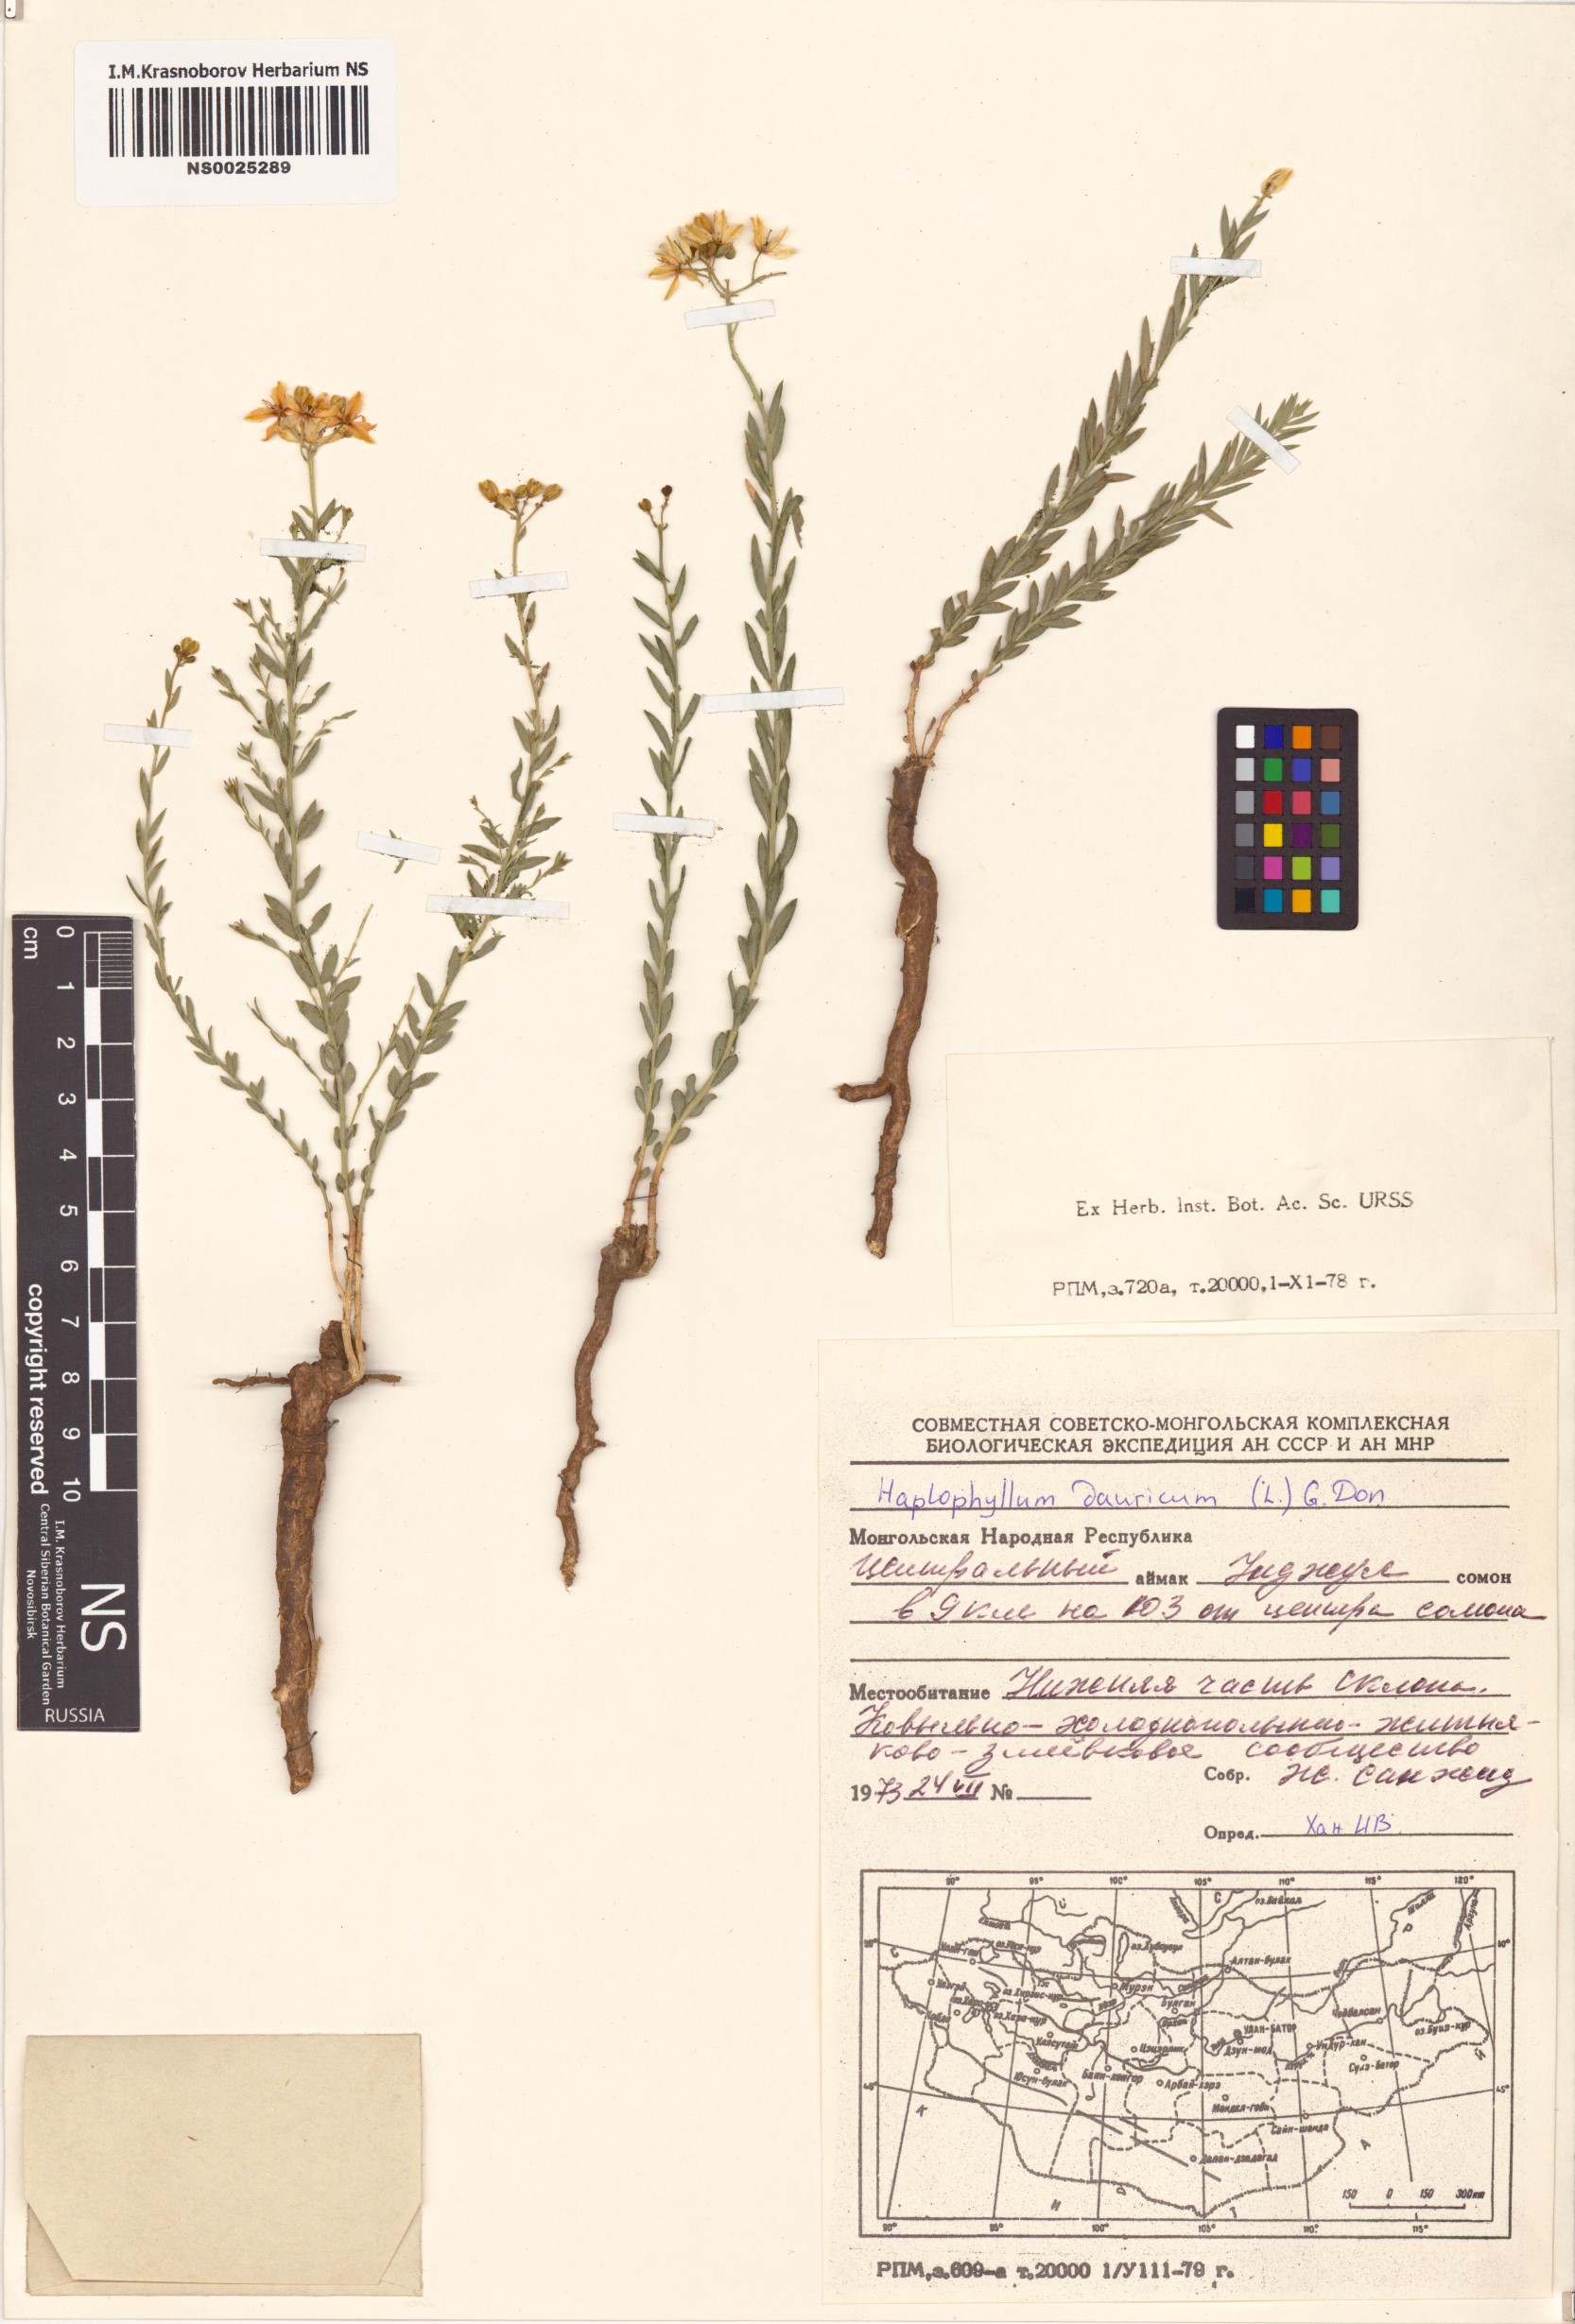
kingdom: Plantae
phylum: Tracheophyta
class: Magnoliopsida
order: Sapindales
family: Rutaceae
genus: Haplophyllum
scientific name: Haplophyllum dauricum
